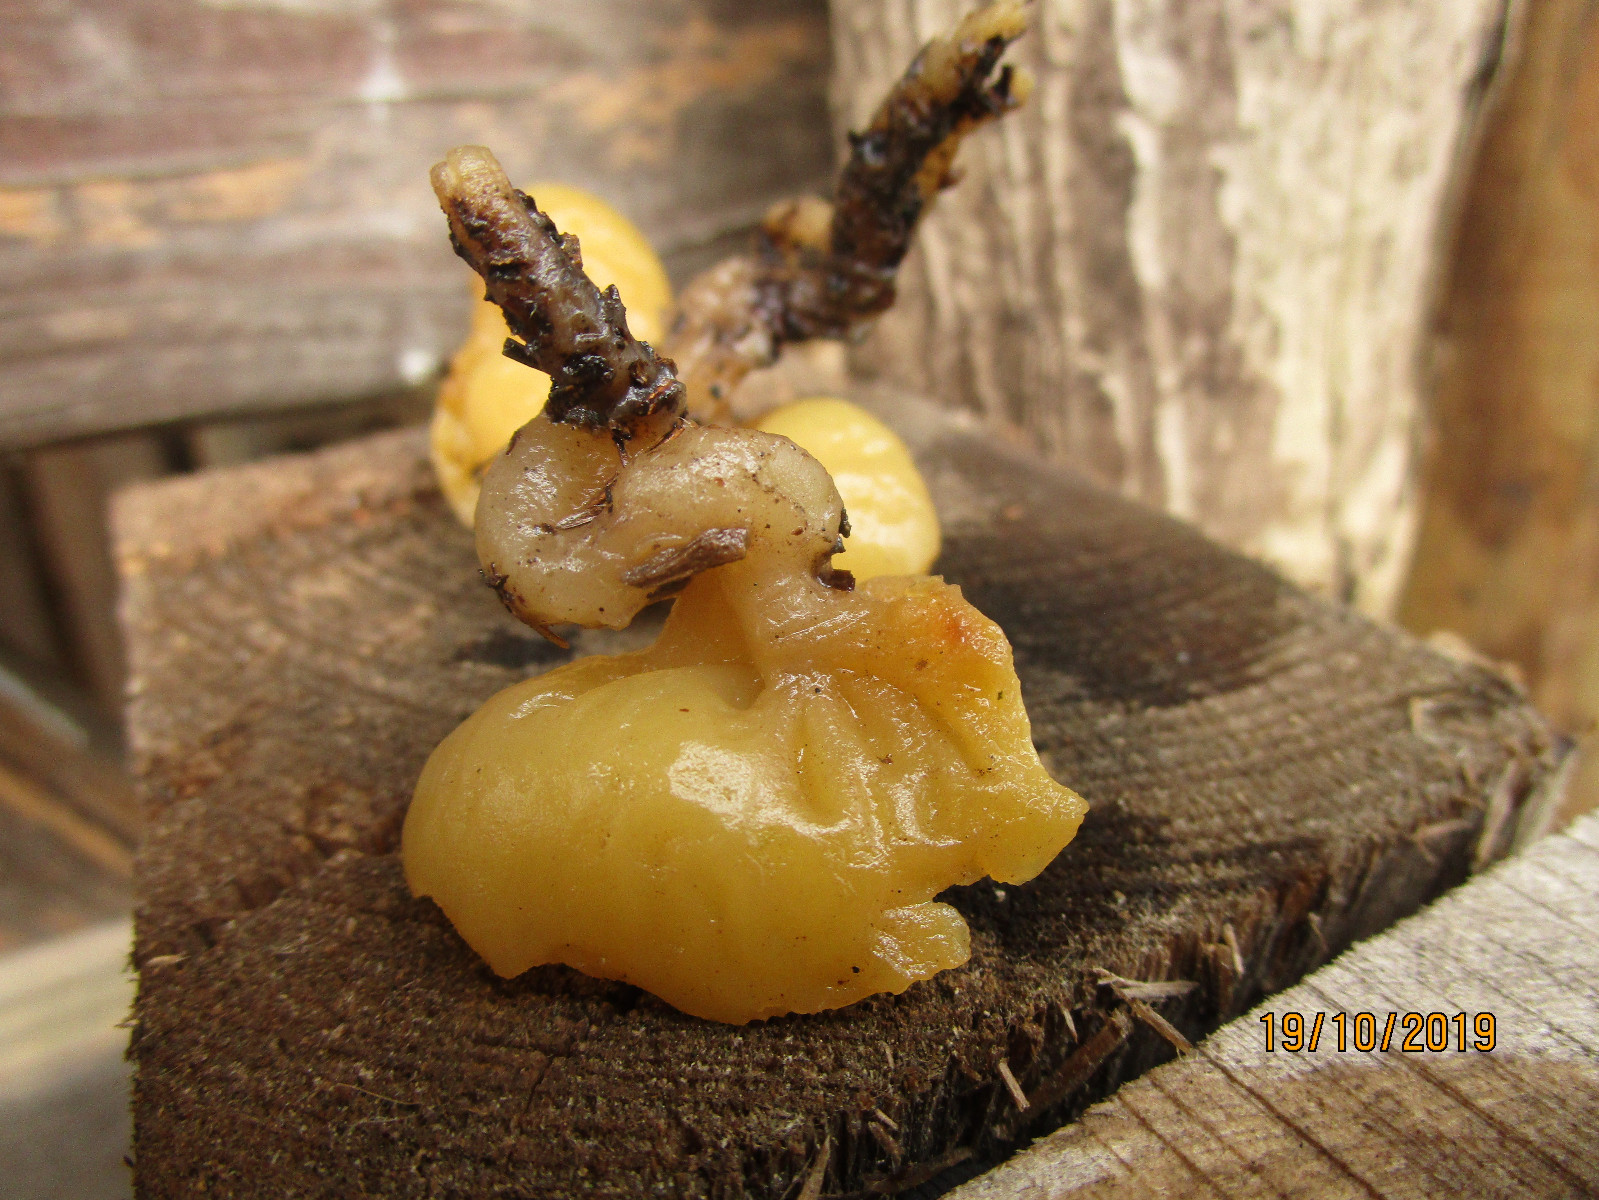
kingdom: Fungi
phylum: Ascomycota
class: Pezizomycetes
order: Pezizales
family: Pyronemataceae
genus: Sowerbyella
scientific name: Sowerbyella radiculata
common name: grøngul rodbæger
